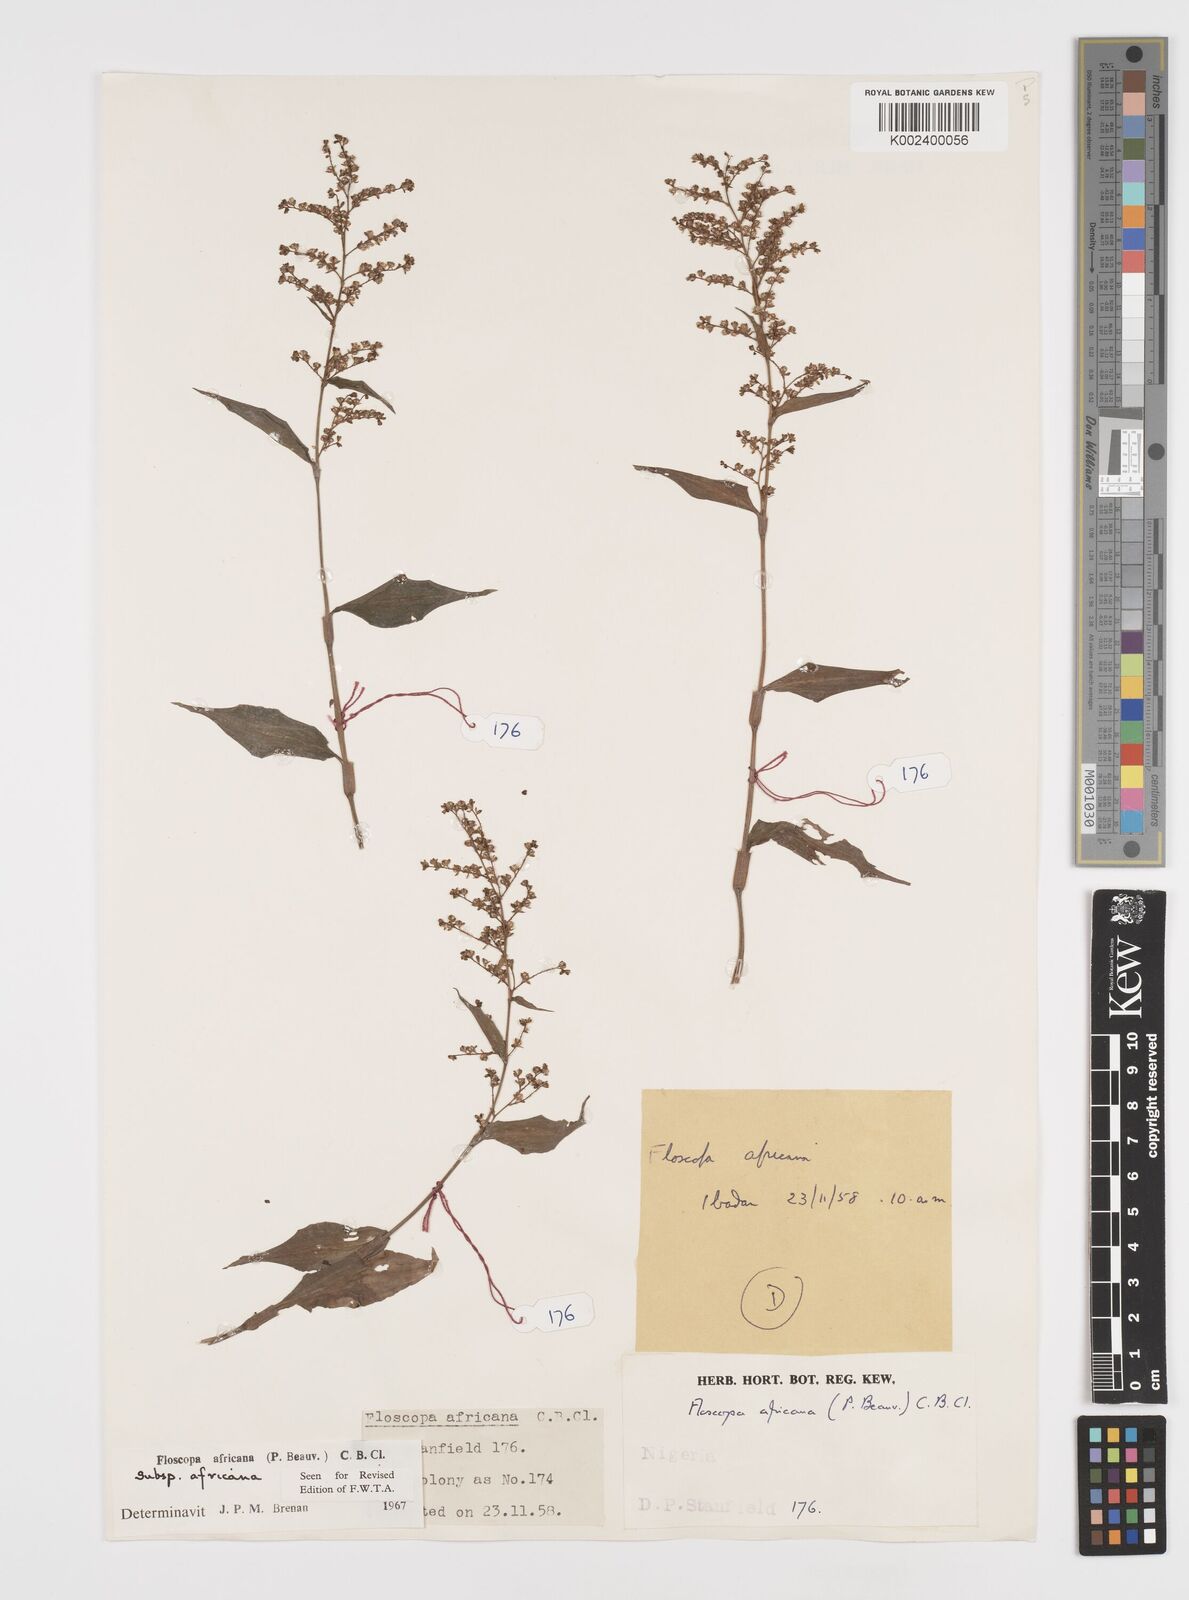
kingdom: Plantae
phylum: Tracheophyta
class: Liliopsida
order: Commelinales
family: Commelinaceae
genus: Floscopa
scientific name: Floscopa africana
